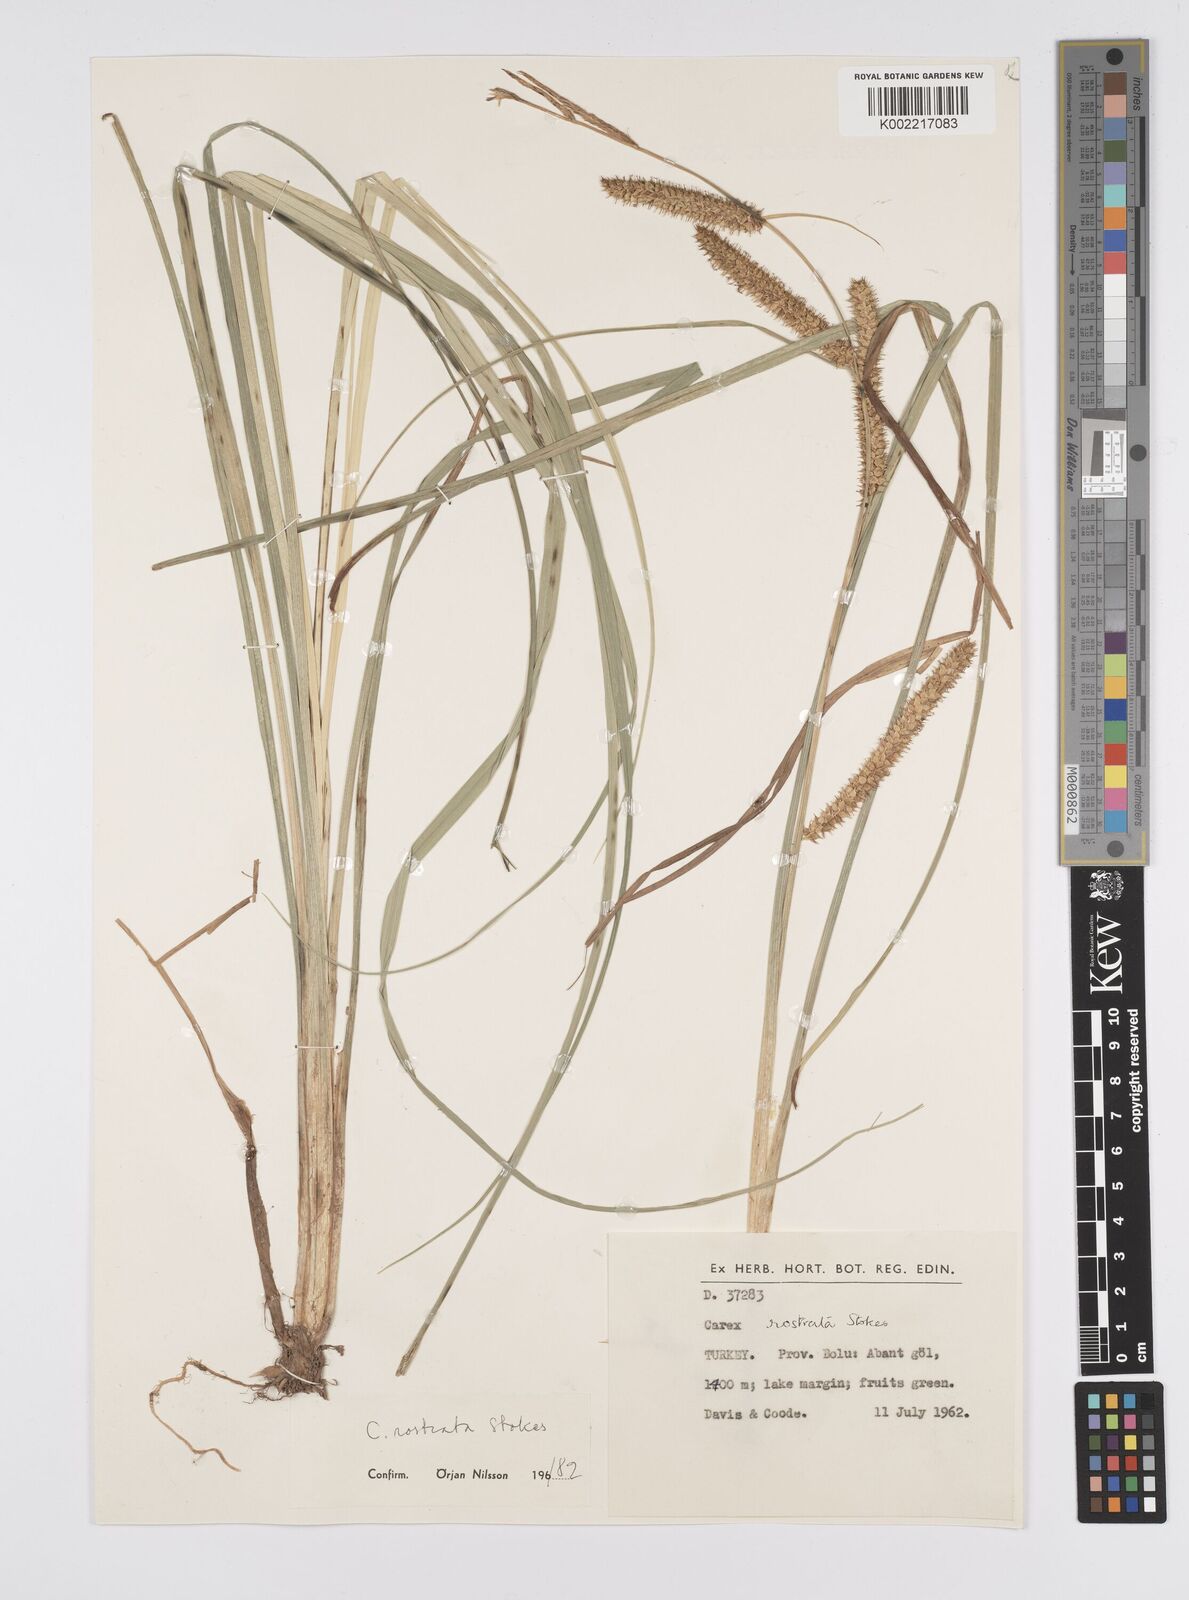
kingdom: Plantae
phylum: Tracheophyta
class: Liliopsida
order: Poales
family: Cyperaceae
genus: Carex
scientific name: Carex rostrata
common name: Bottle sedge
